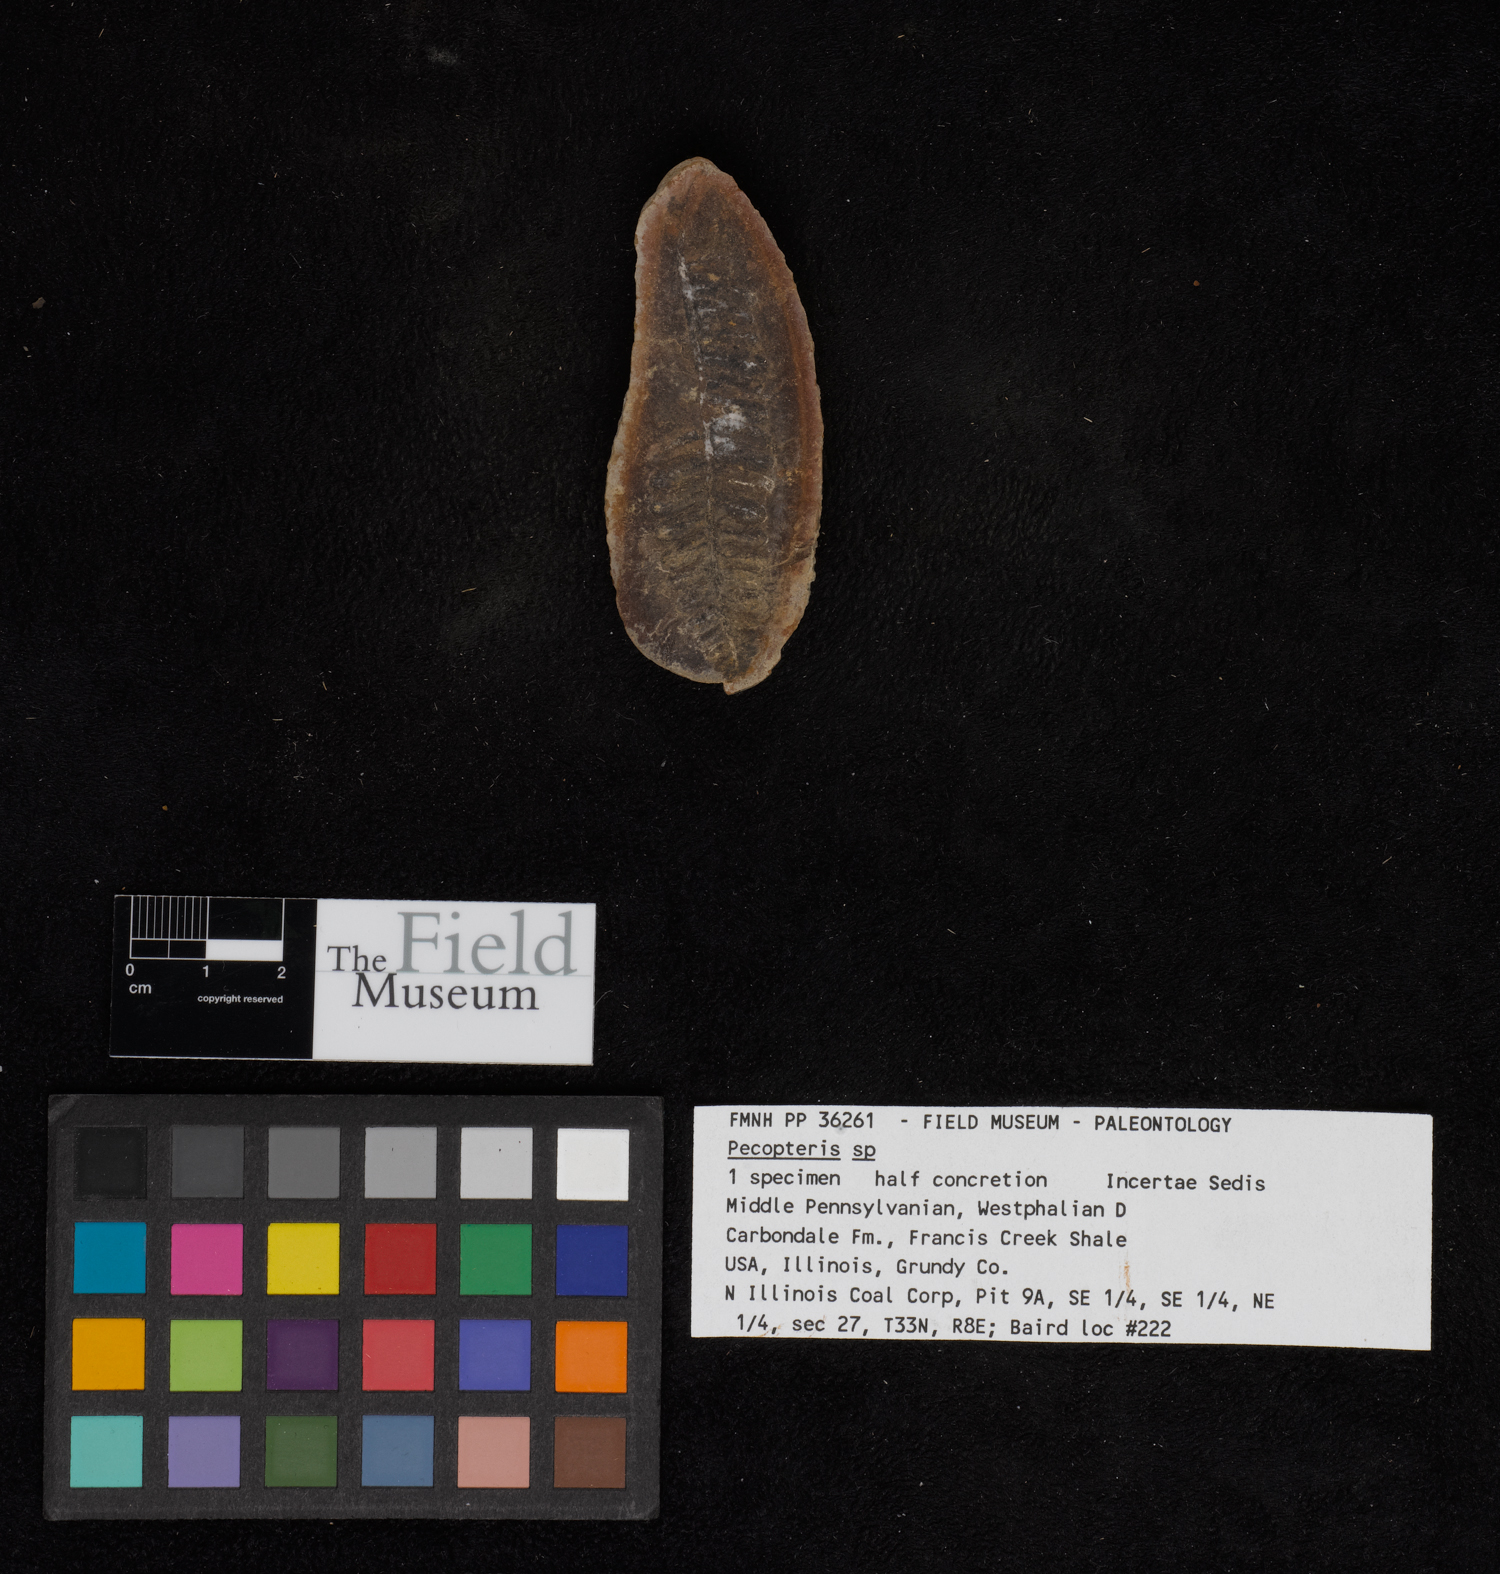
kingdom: Plantae
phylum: Tracheophyta
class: Polypodiopsida
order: Marattiales
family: Asterothecaceae
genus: Pecopteris
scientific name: Pecopteris
